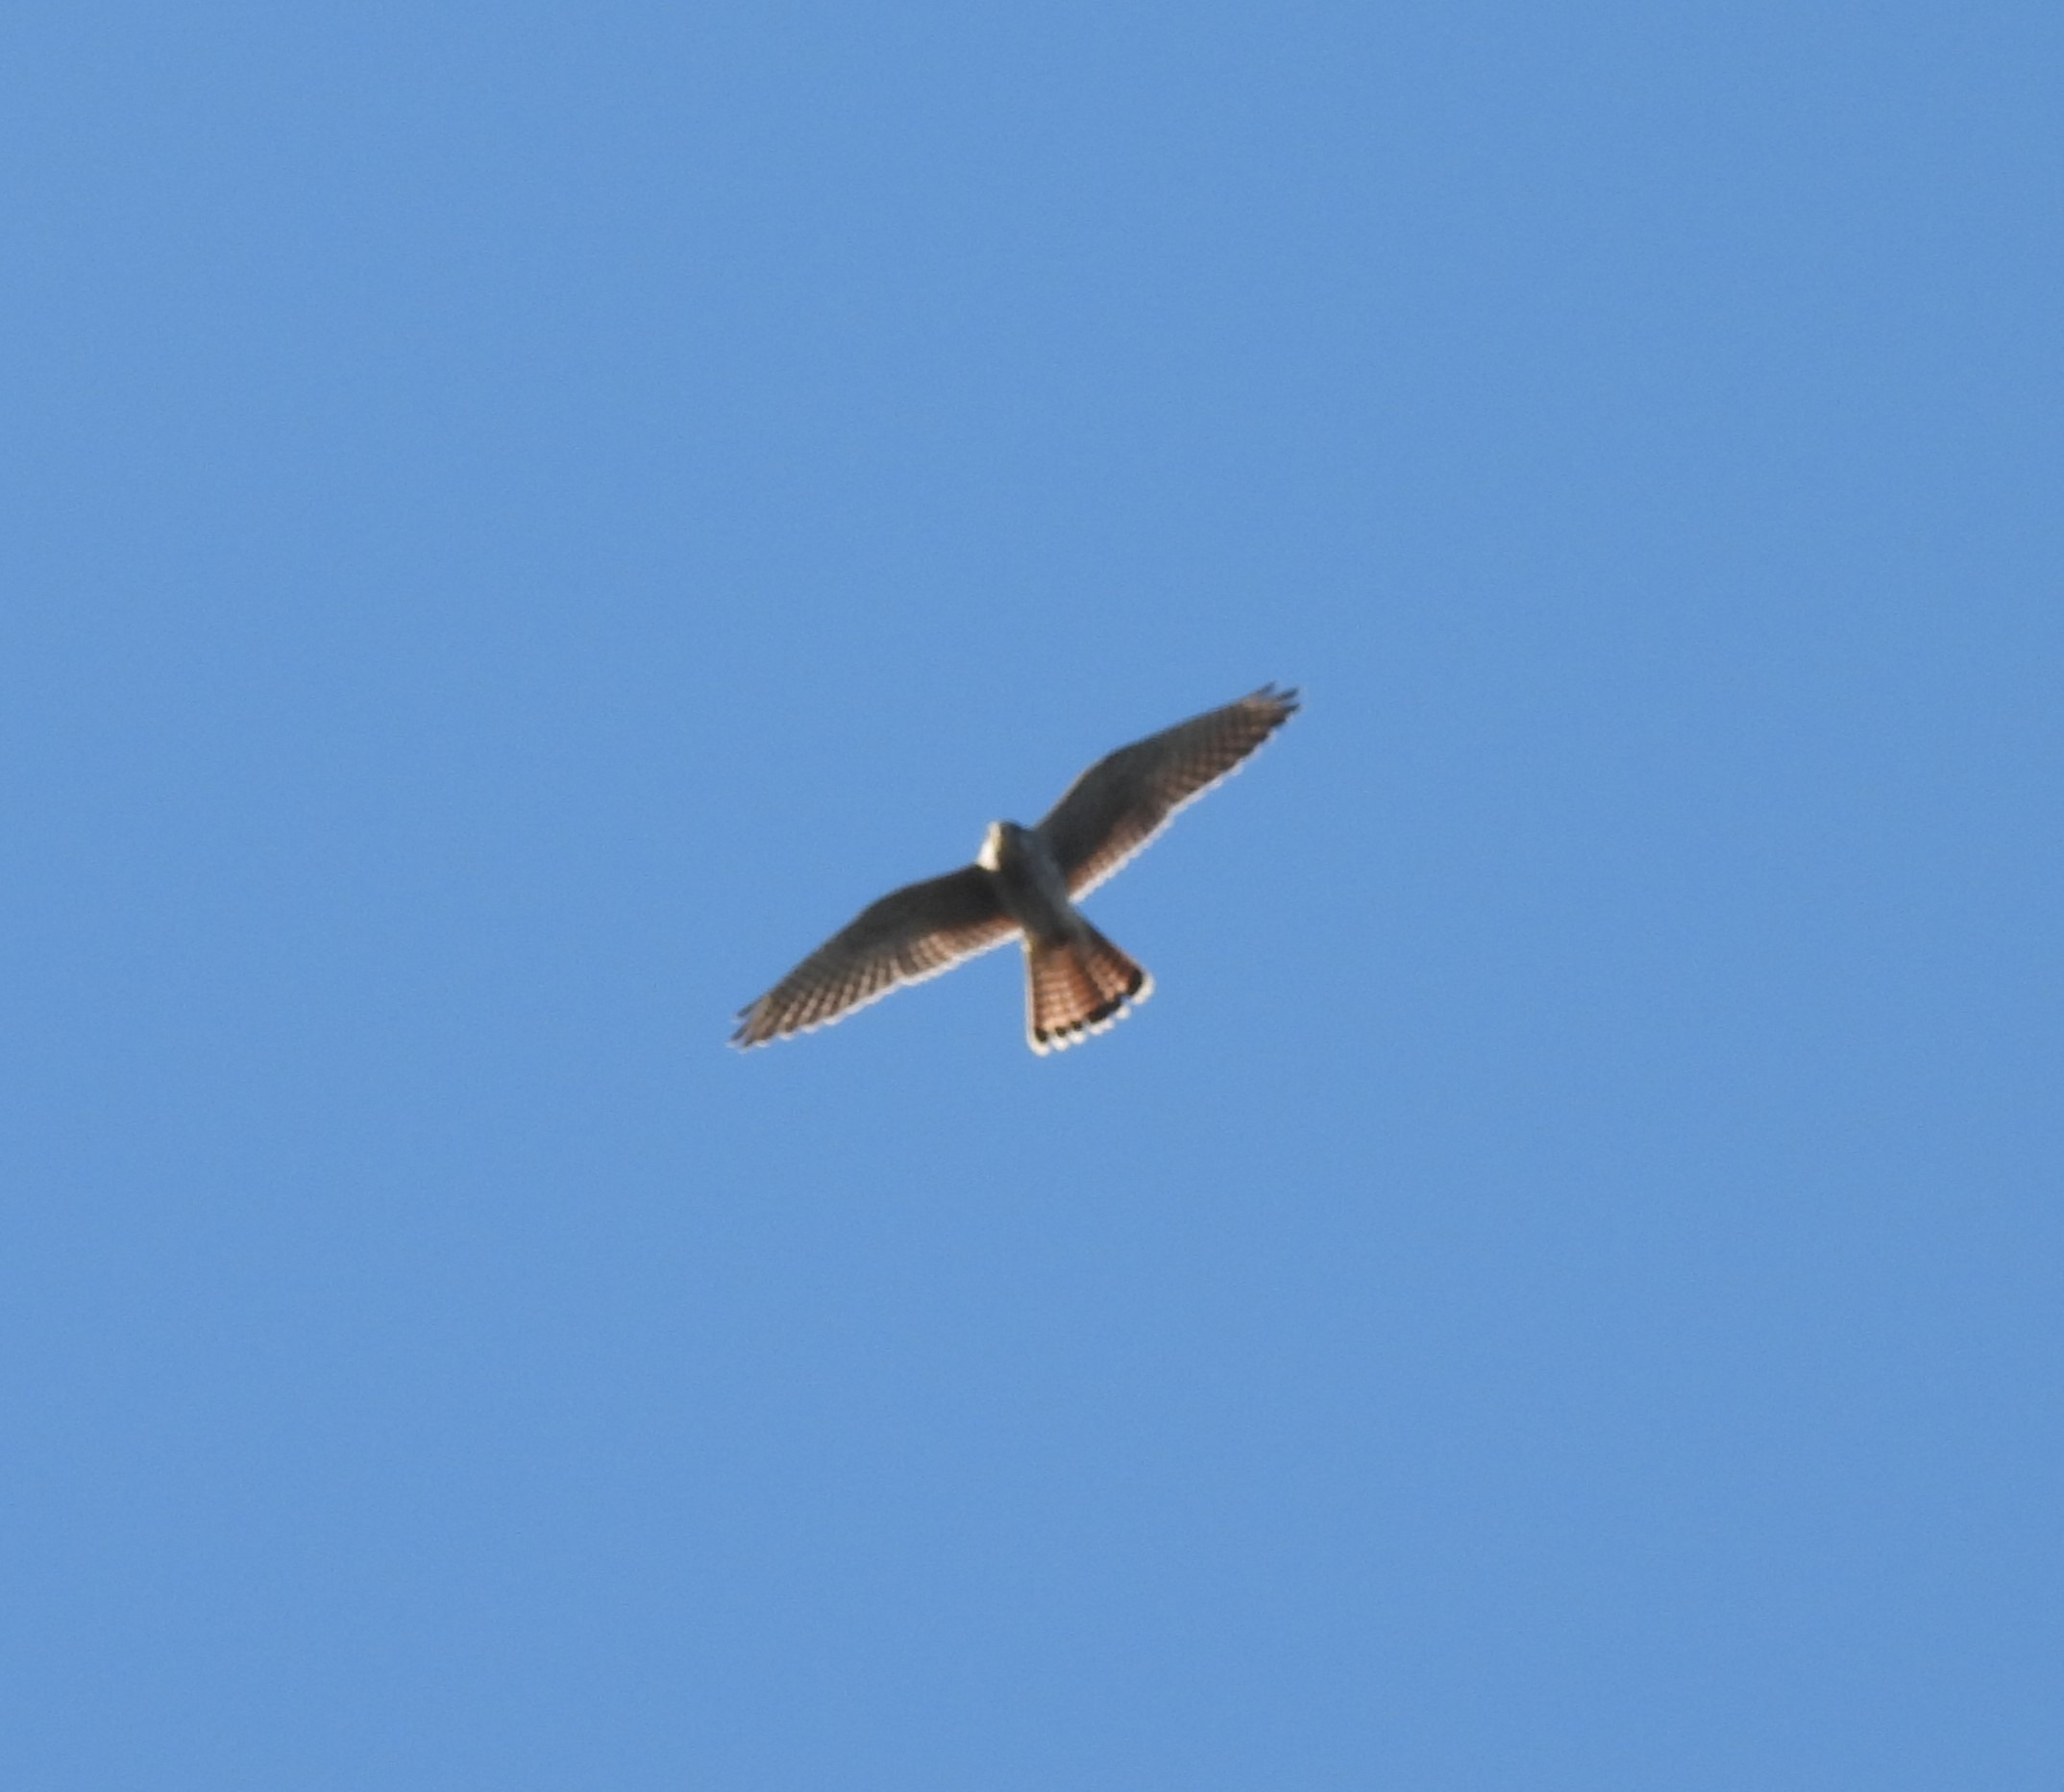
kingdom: Animalia
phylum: Chordata
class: Aves
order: Falconiformes
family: Falconidae
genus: Falco
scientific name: Falco tinnunculus
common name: Tårnfalk
